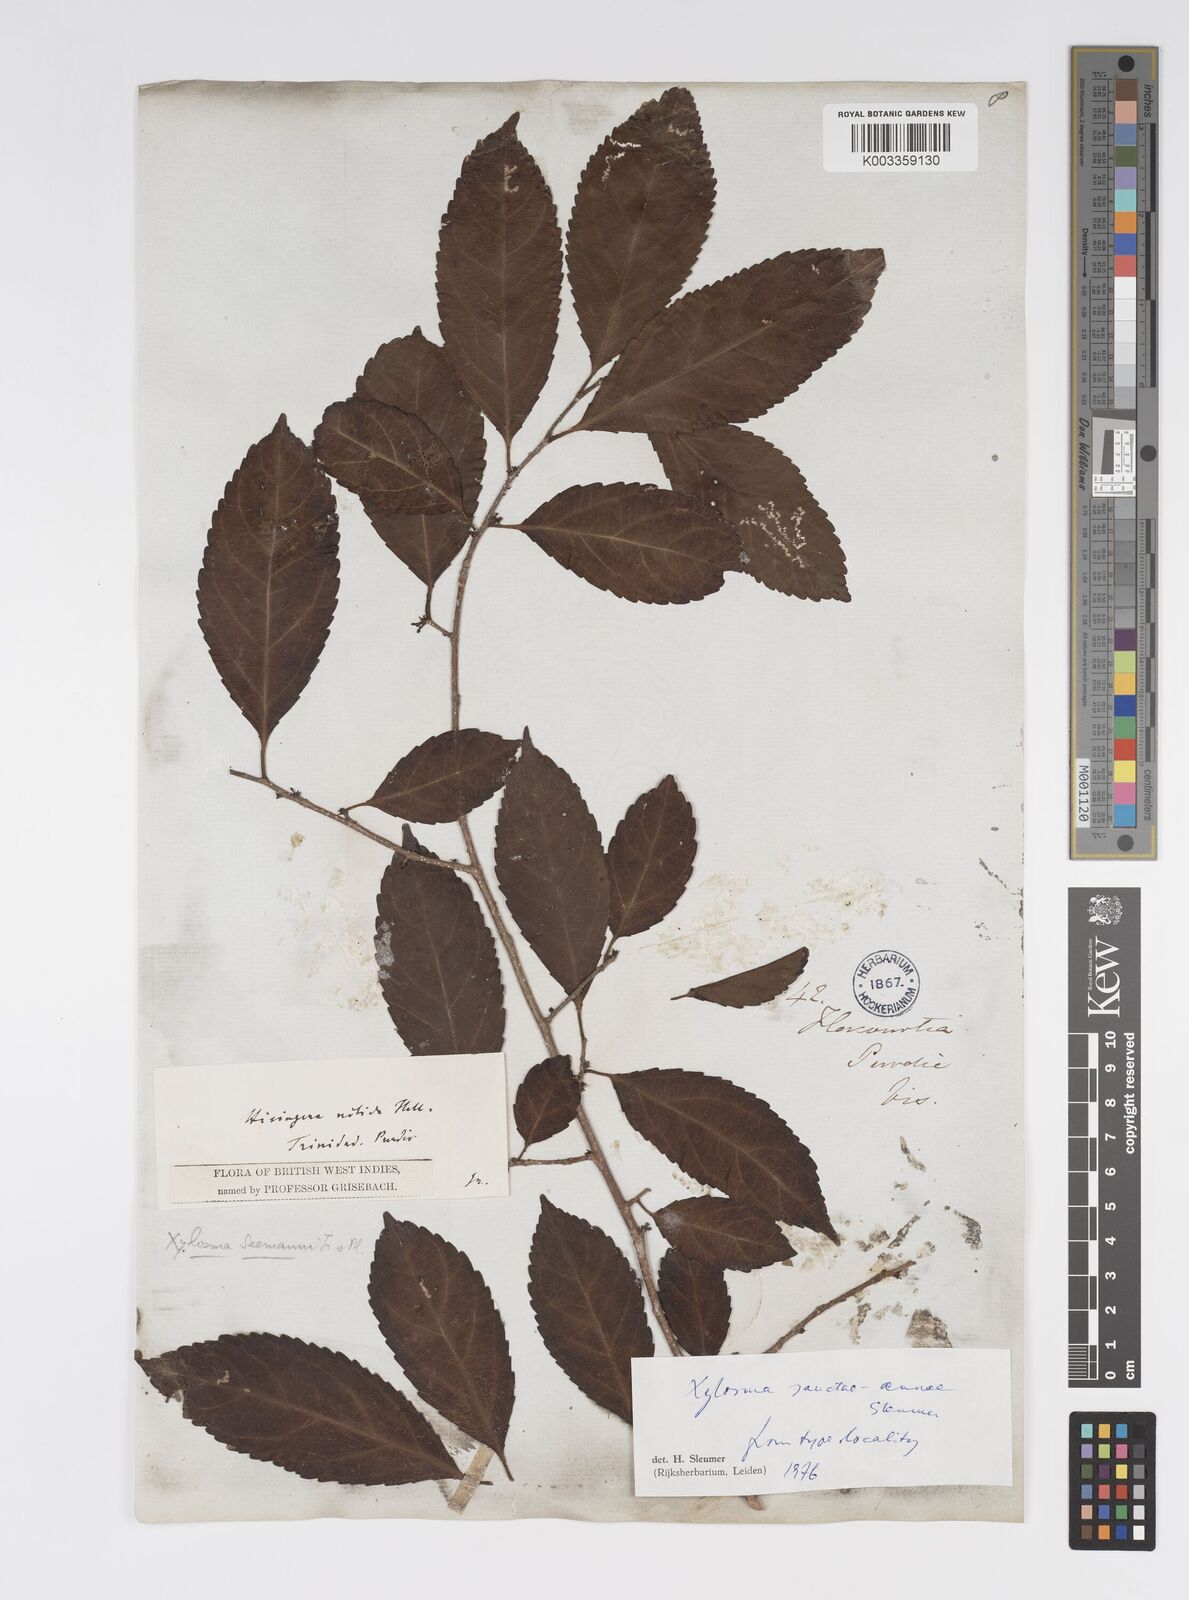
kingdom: Plantae
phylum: Tracheophyta
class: Magnoliopsida
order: Malpighiales
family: Salicaceae
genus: Xylosma
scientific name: Xylosma sanctae-annae
